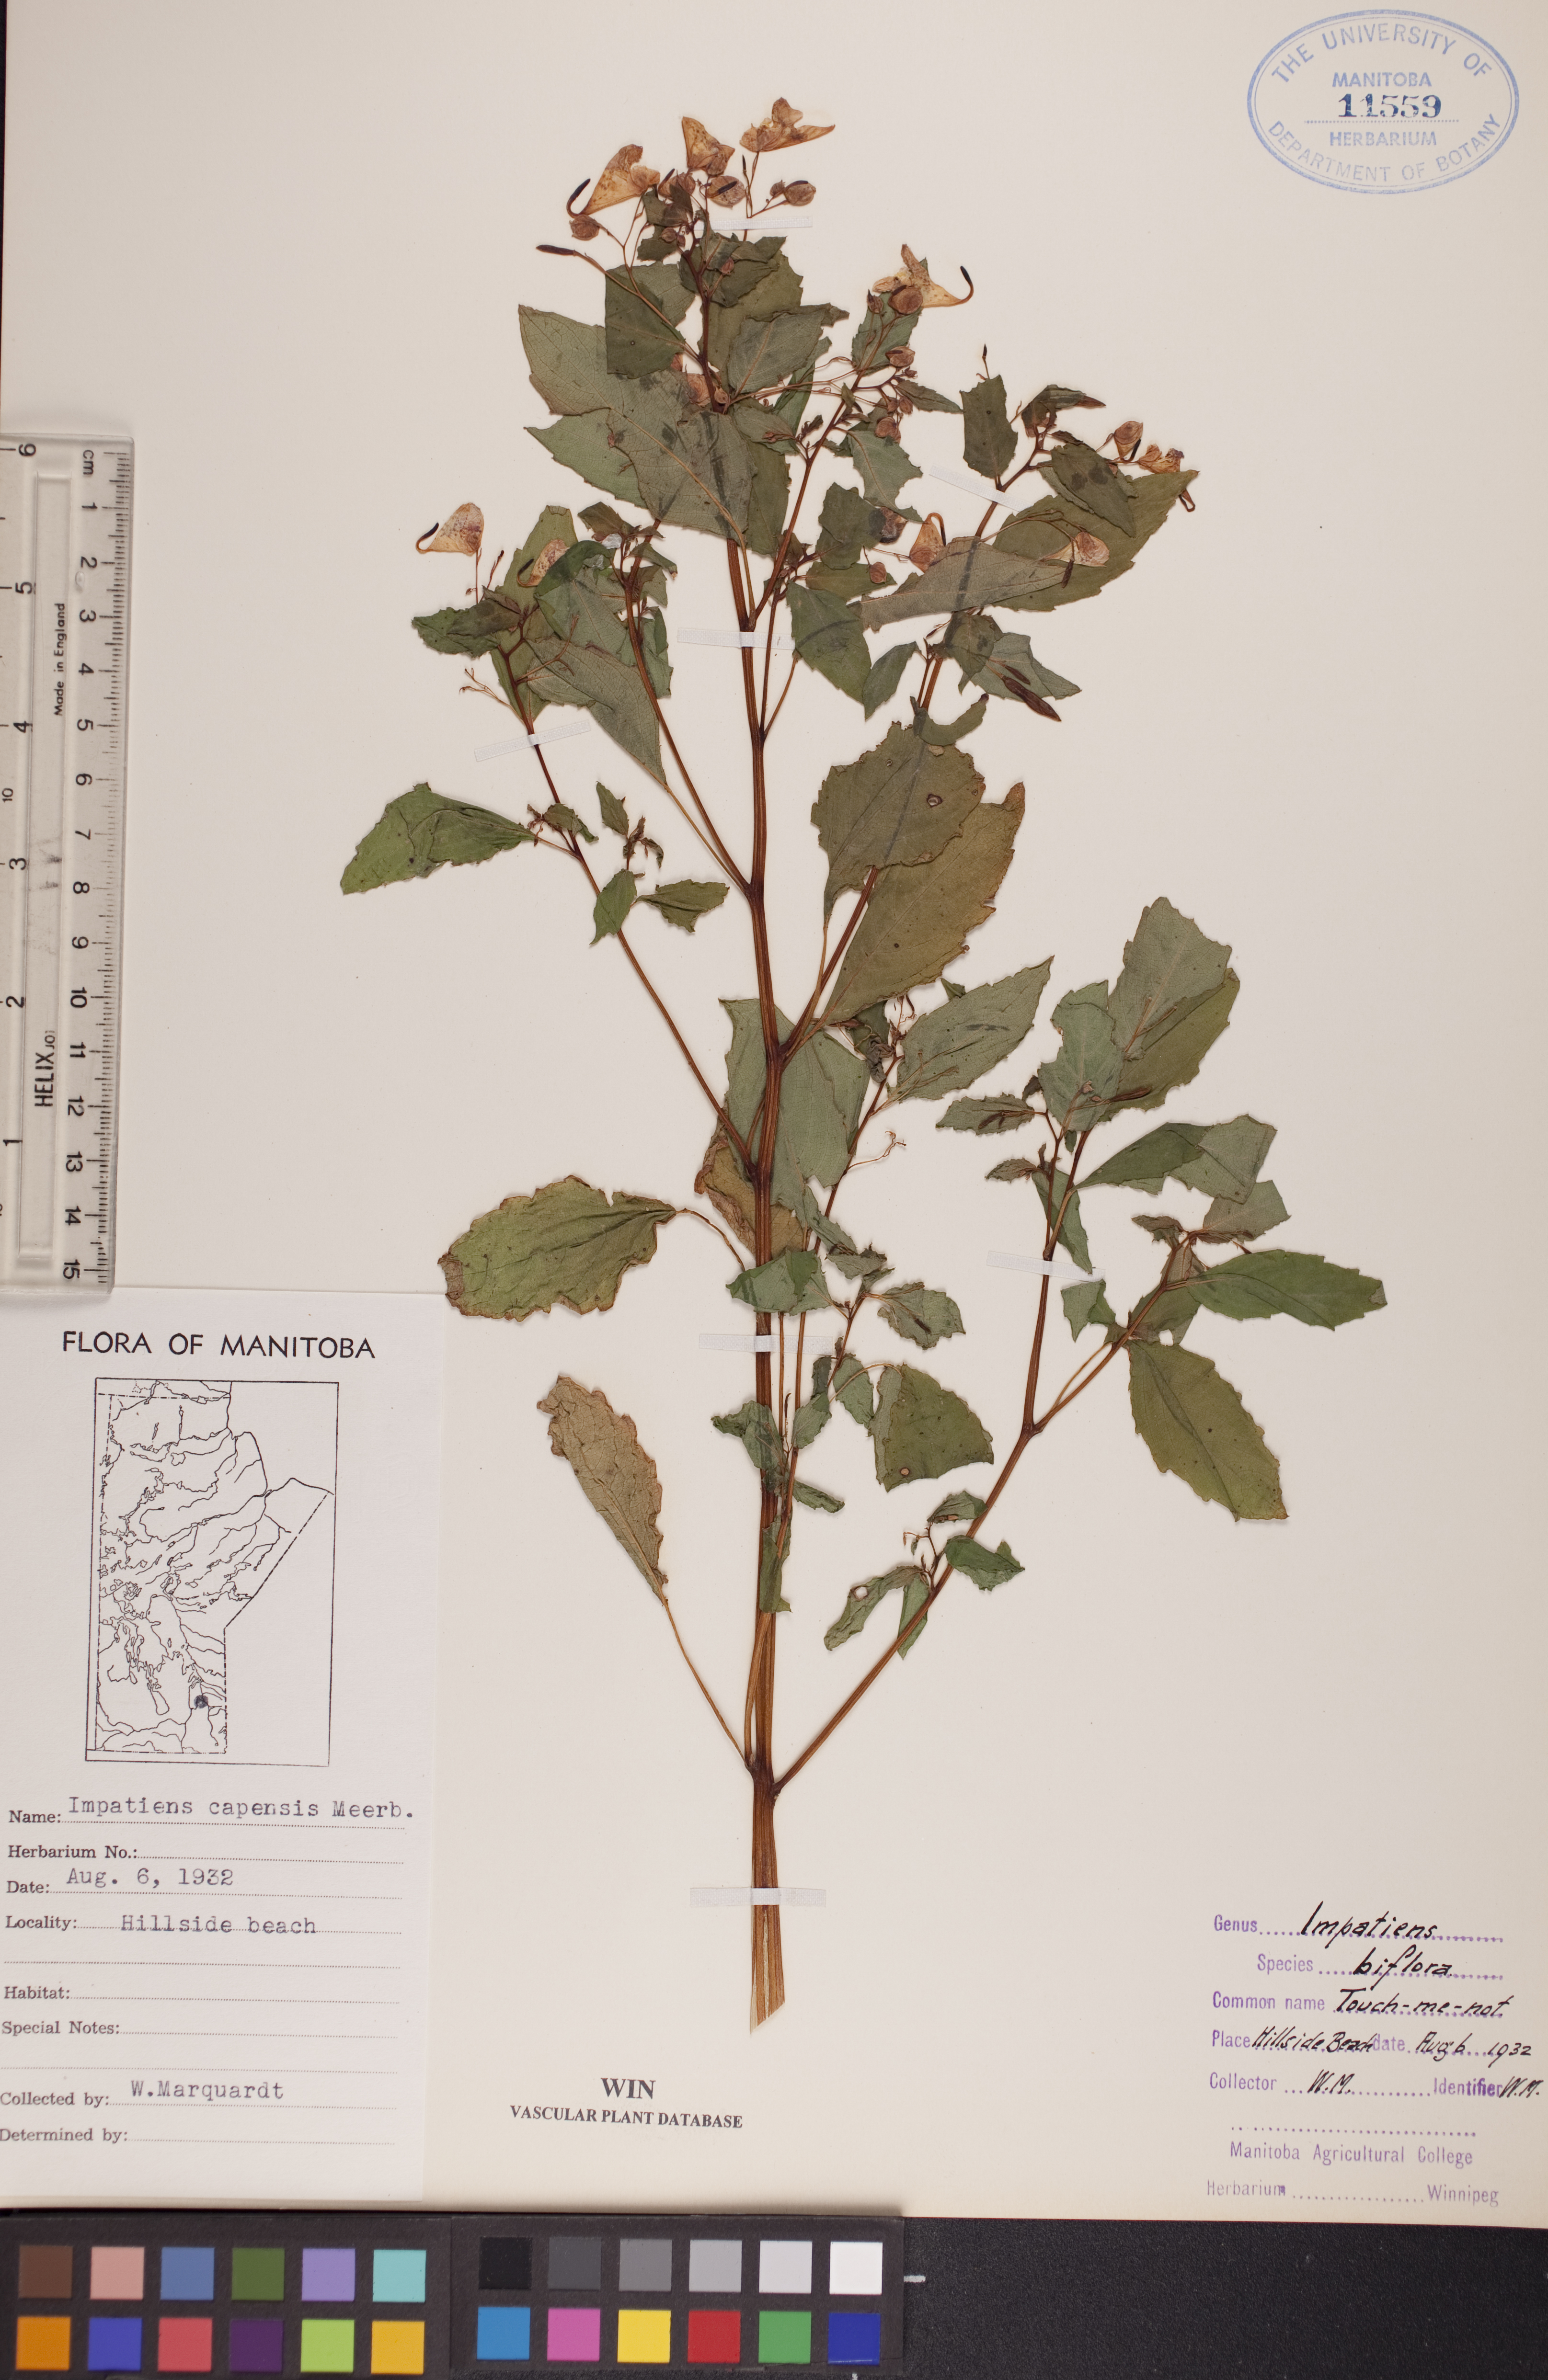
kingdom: Plantae
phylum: Tracheophyta
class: Magnoliopsida
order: Ericales
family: Balsaminaceae
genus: Impatiens
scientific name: Impatiens capensis
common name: Orange balsam
